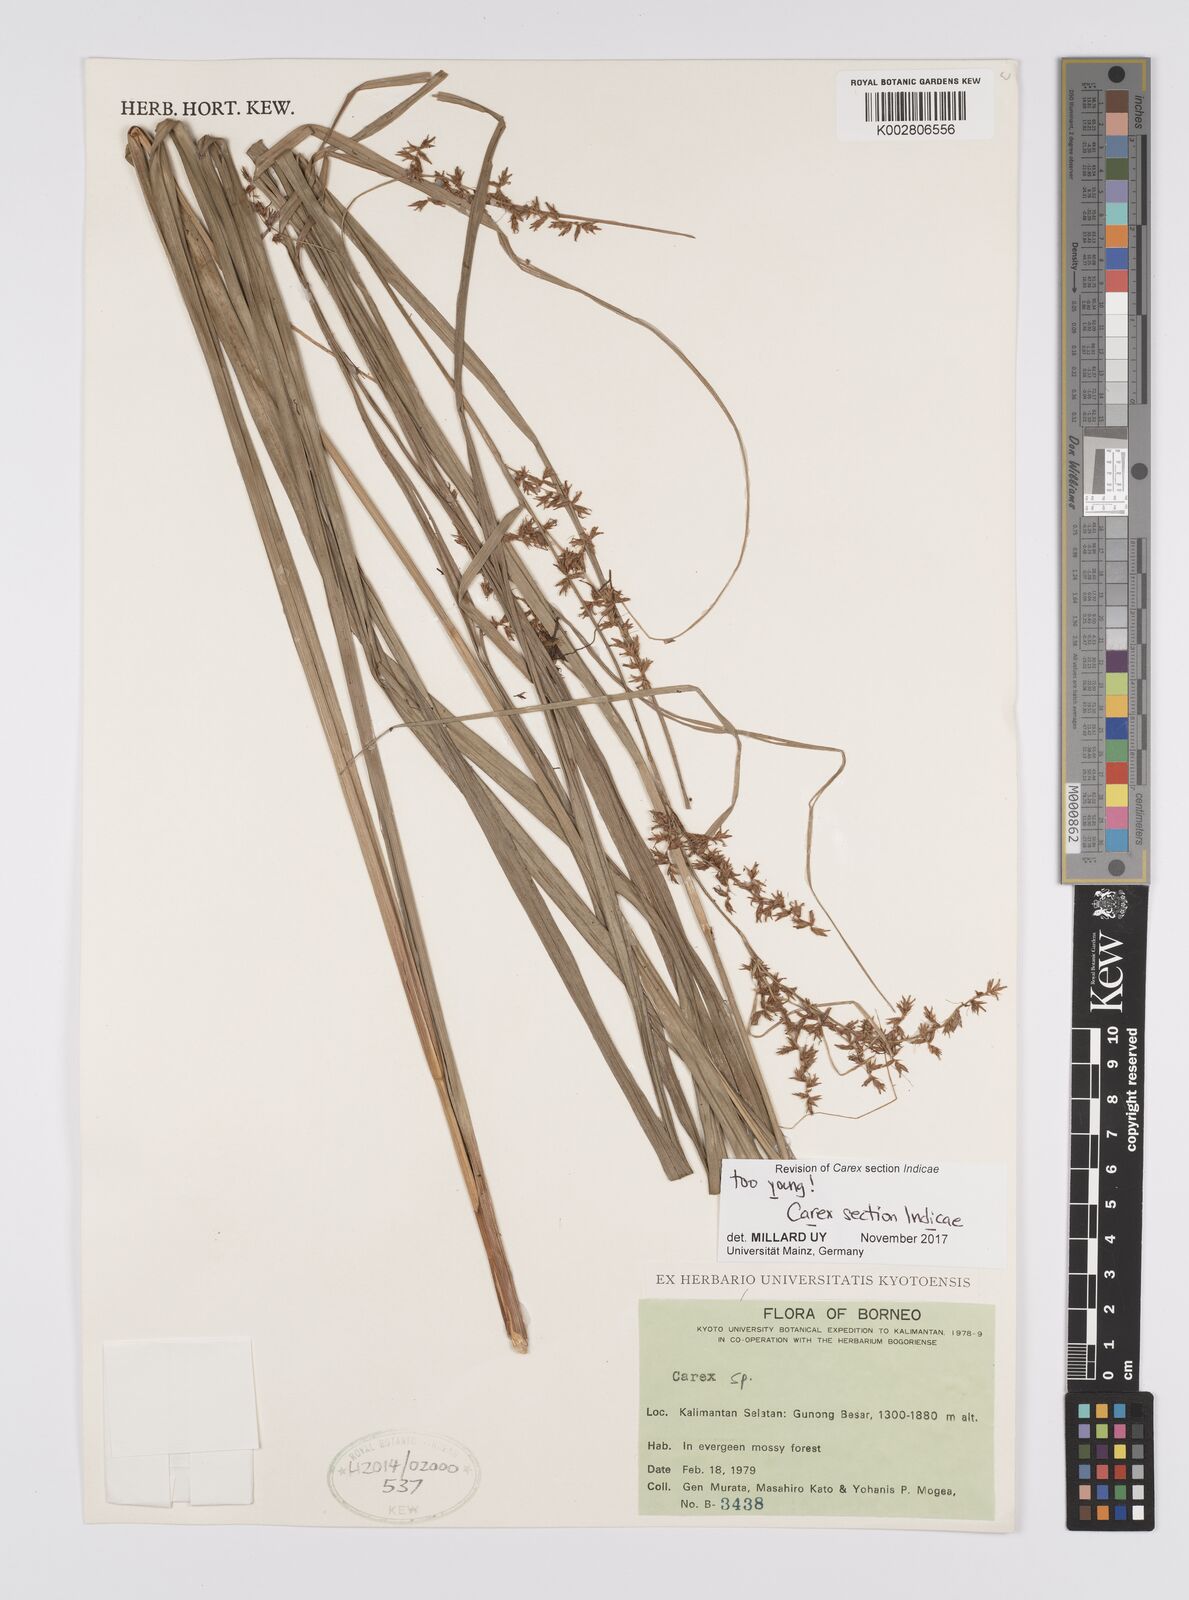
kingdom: Plantae
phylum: Tracheophyta
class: Liliopsida
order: Poales
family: Cyperaceae
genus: Carex
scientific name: Carex
